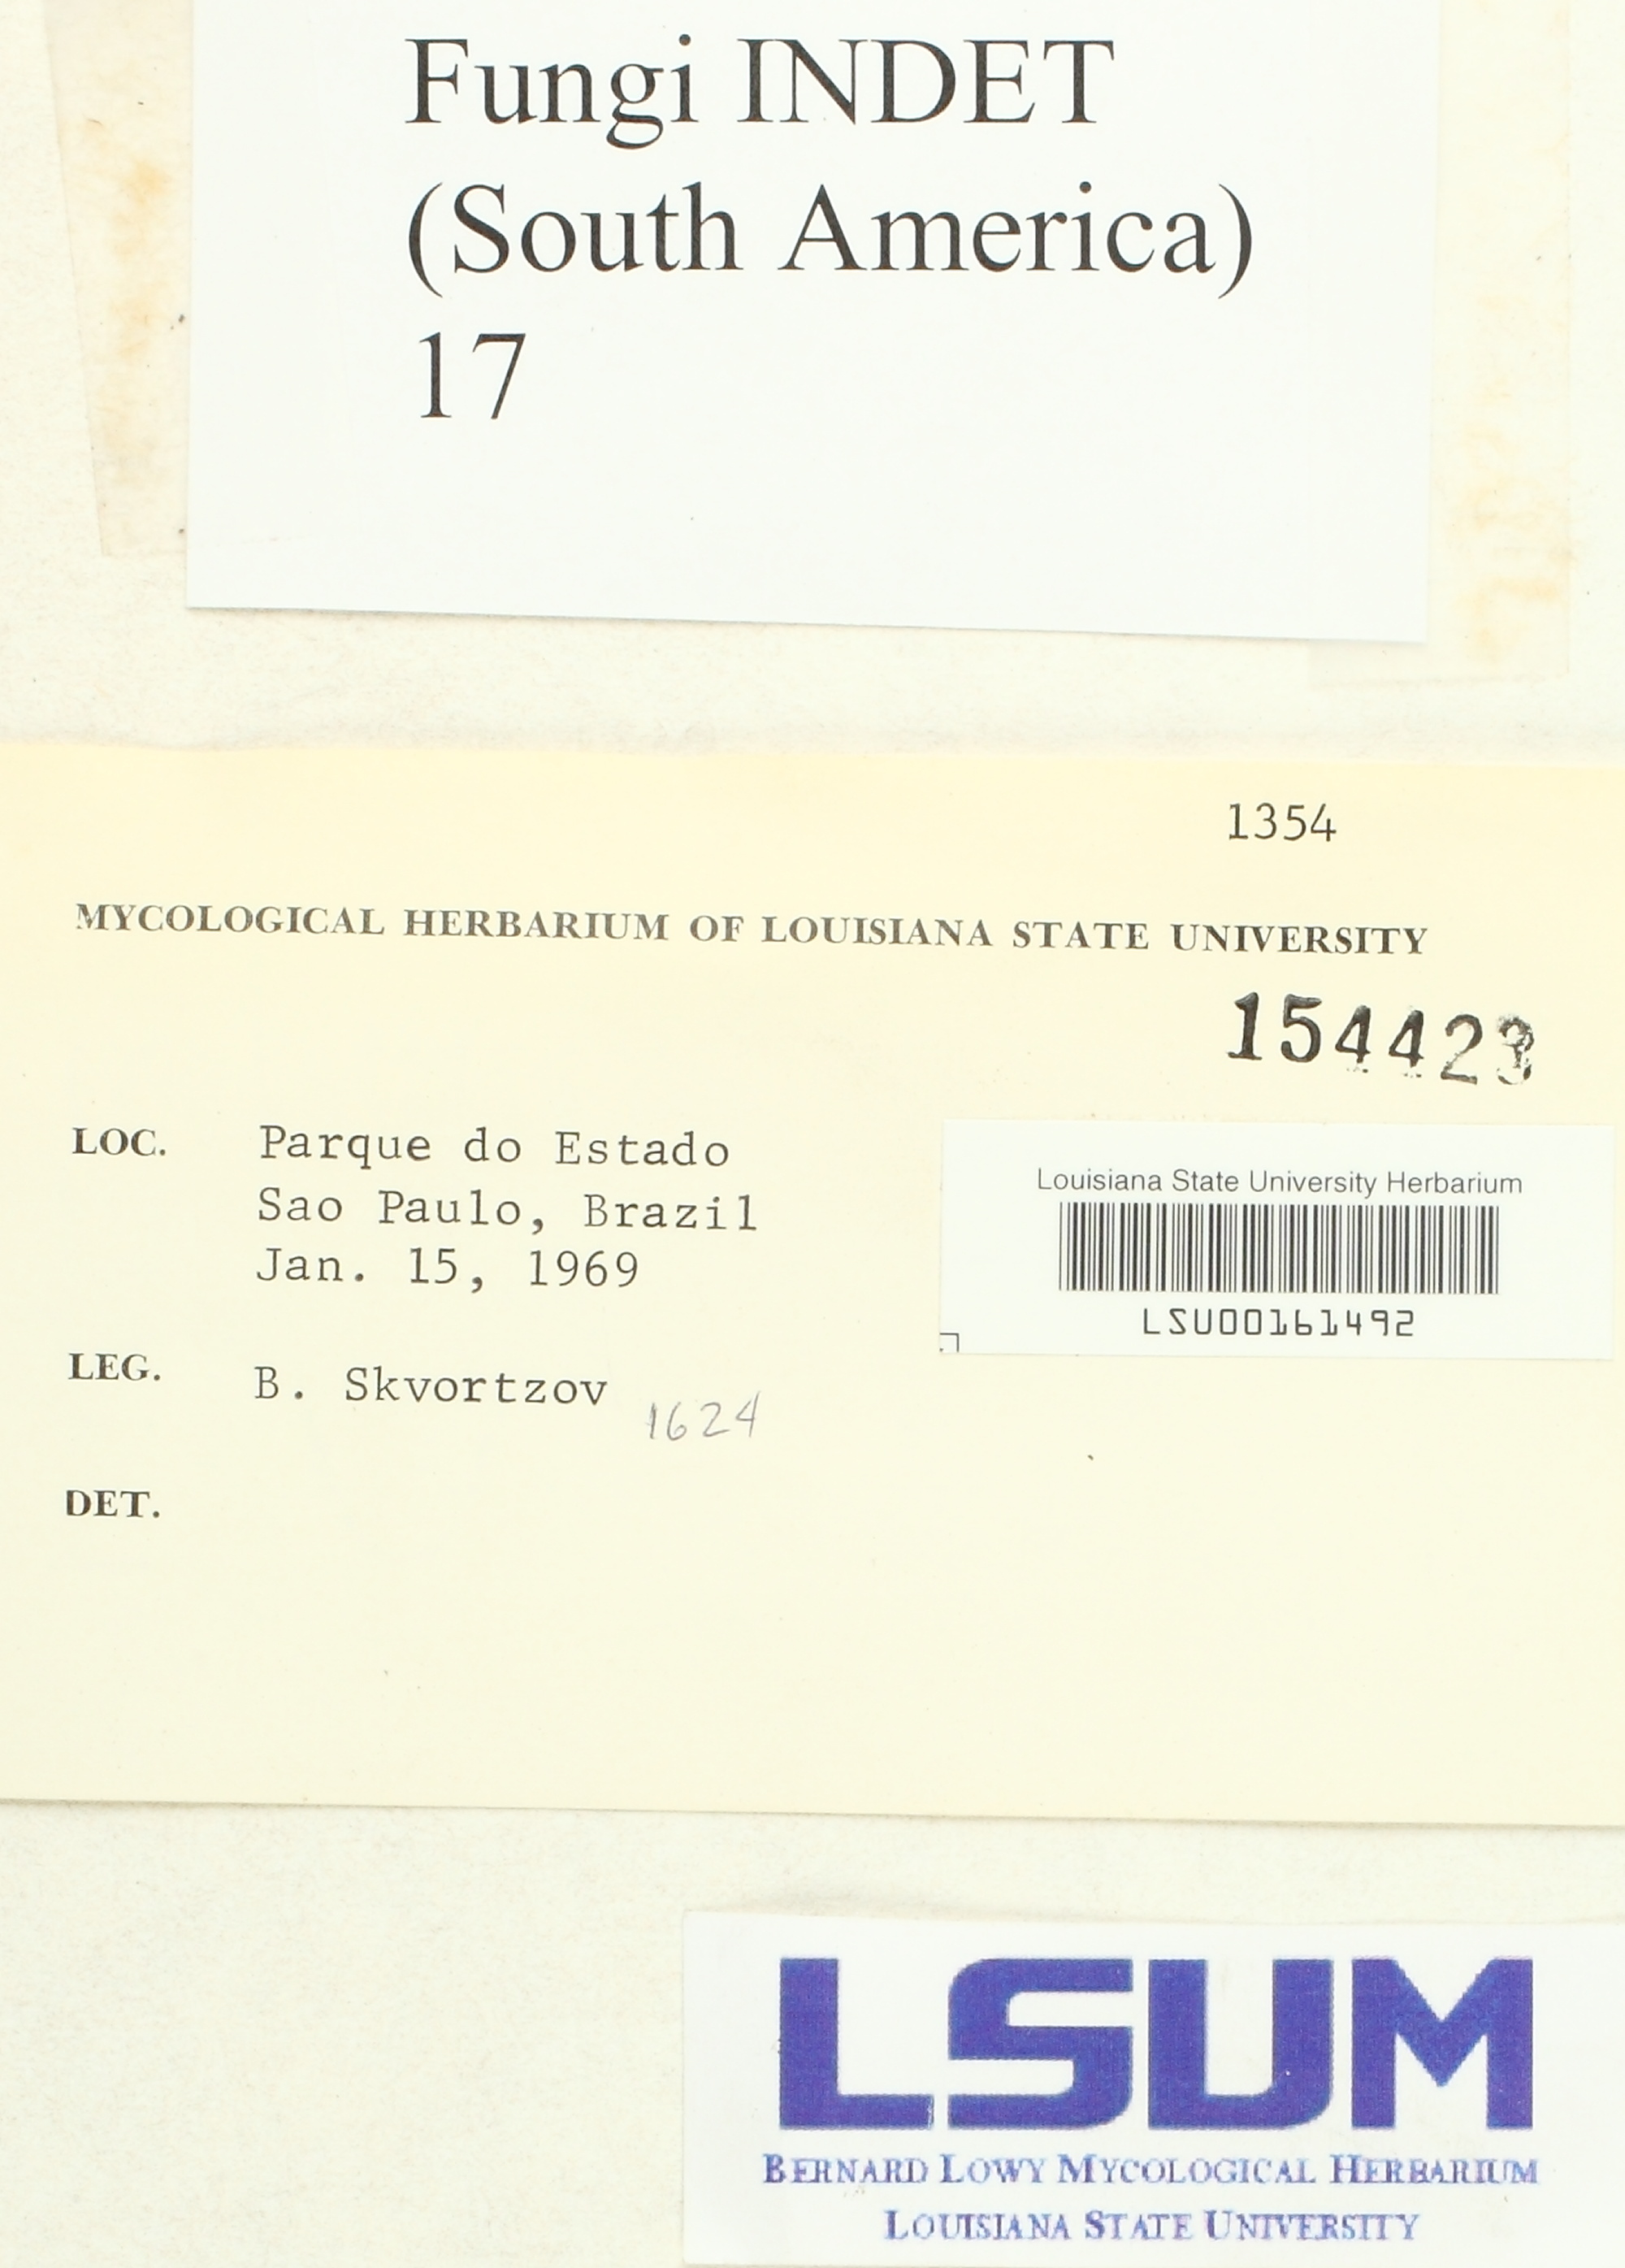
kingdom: Fungi
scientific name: Fungi
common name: Fungi
